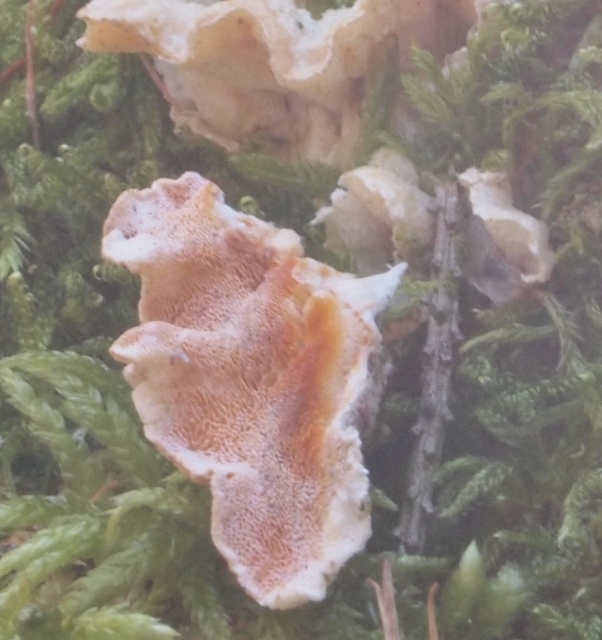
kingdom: Fungi
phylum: Basidiomycota
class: Agaricomycetes
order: Polyporales
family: Incrustoporiaceae
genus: Skeletocutis
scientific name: Skeletocutis amorpha
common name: orange krystalporesvamp
